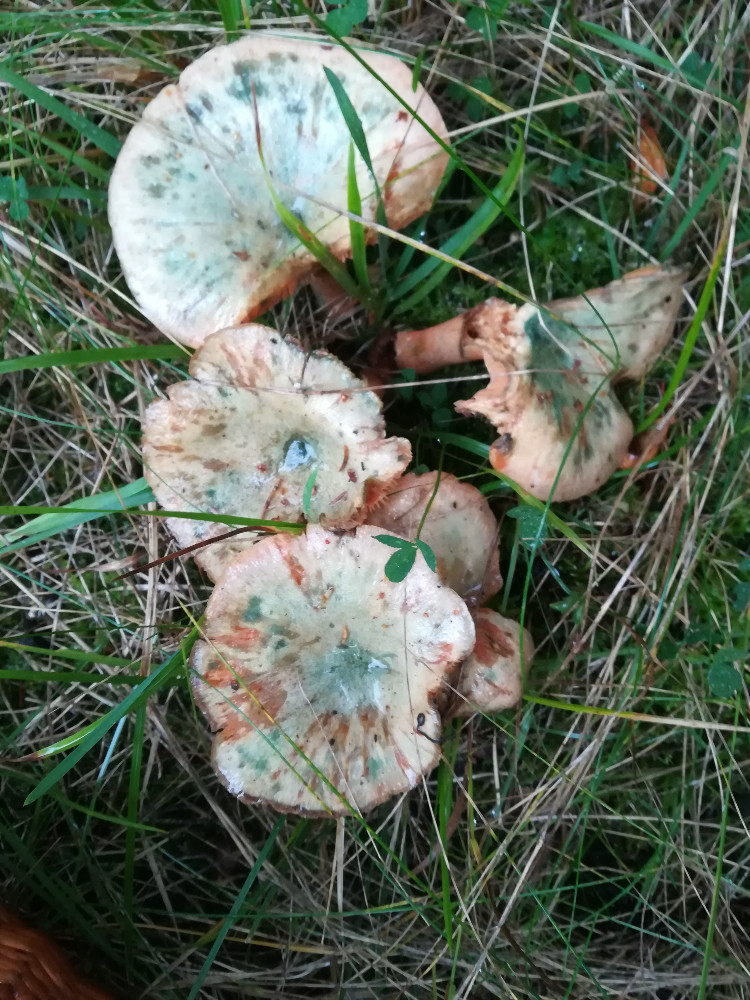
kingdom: Fungi
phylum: Basidiomycota
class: Agaricomycetes
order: Russulales
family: Russulaceae
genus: Lactarius
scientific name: Lactarius deterrimus
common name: gran-mælkehat
